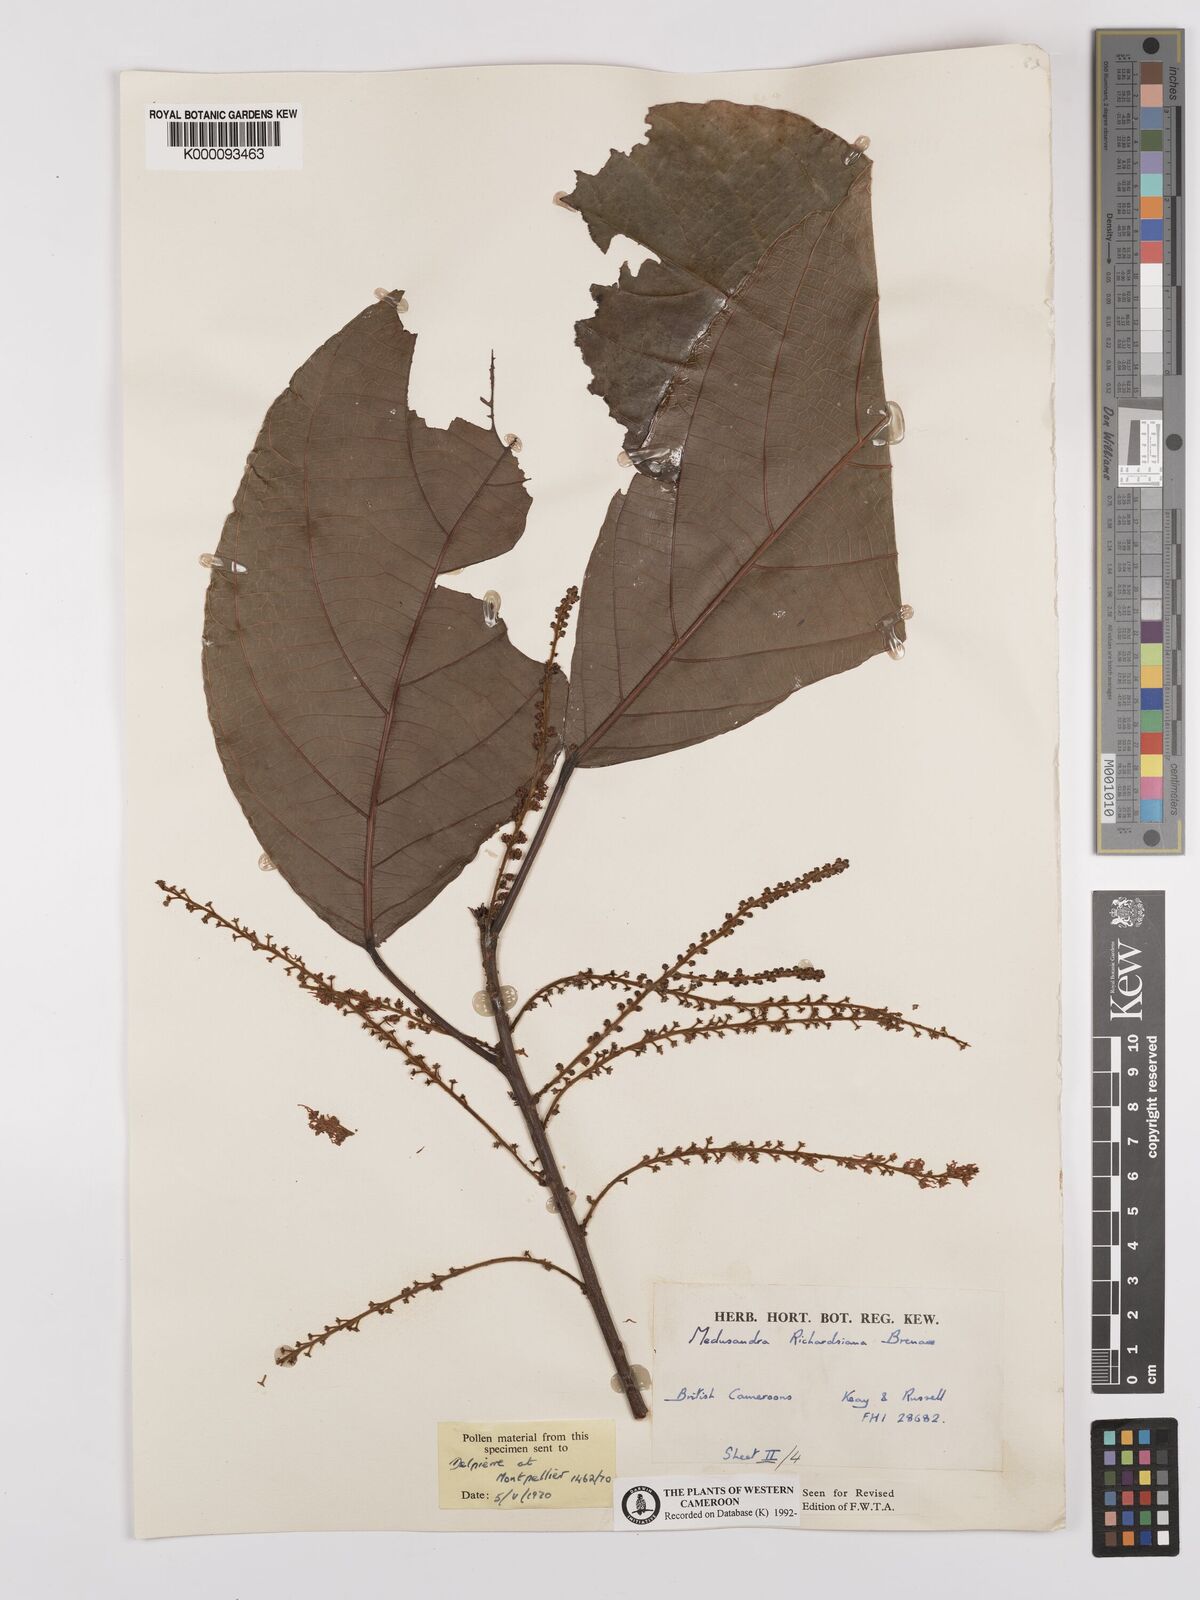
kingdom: Plantae
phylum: Tracheophyta
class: Magnoliopsida
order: Saxifragales
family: Peridiscaceae
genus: Medusandra
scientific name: Medusandra richardsiana
